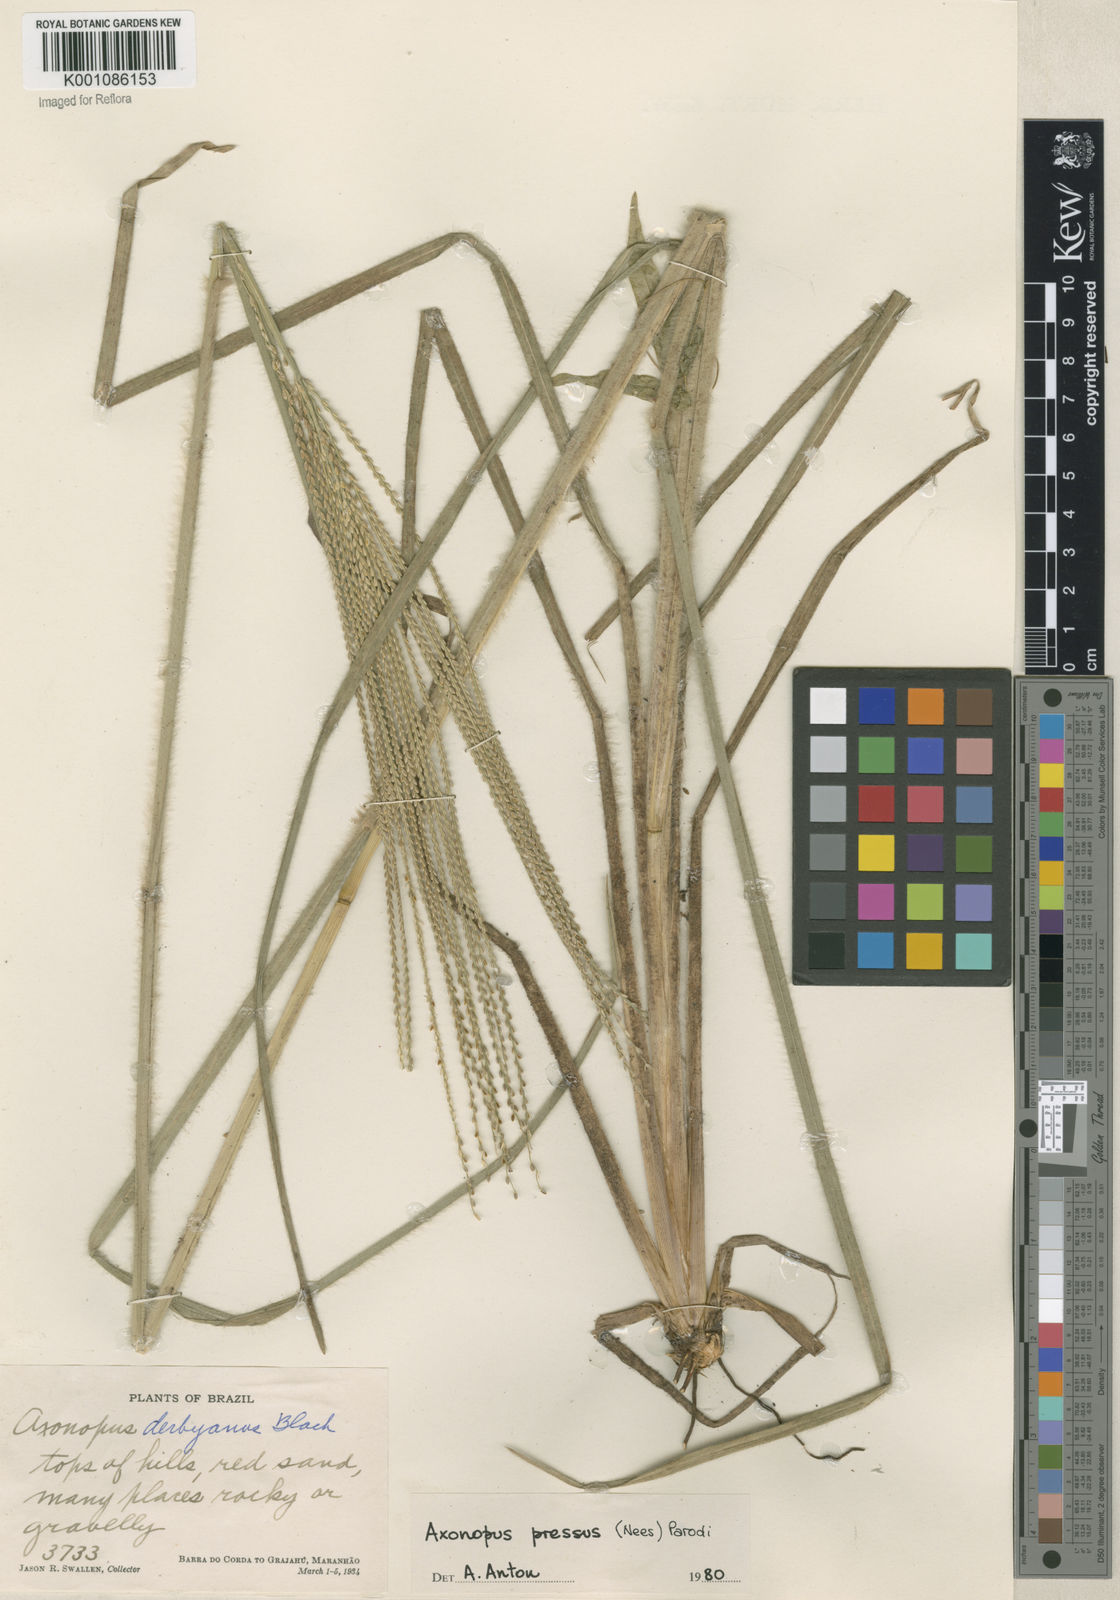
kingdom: Plantae
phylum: Tracheophyta
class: Liliopsida
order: Poales
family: Poaceae
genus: Axonopus
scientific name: Axonopus pressus
